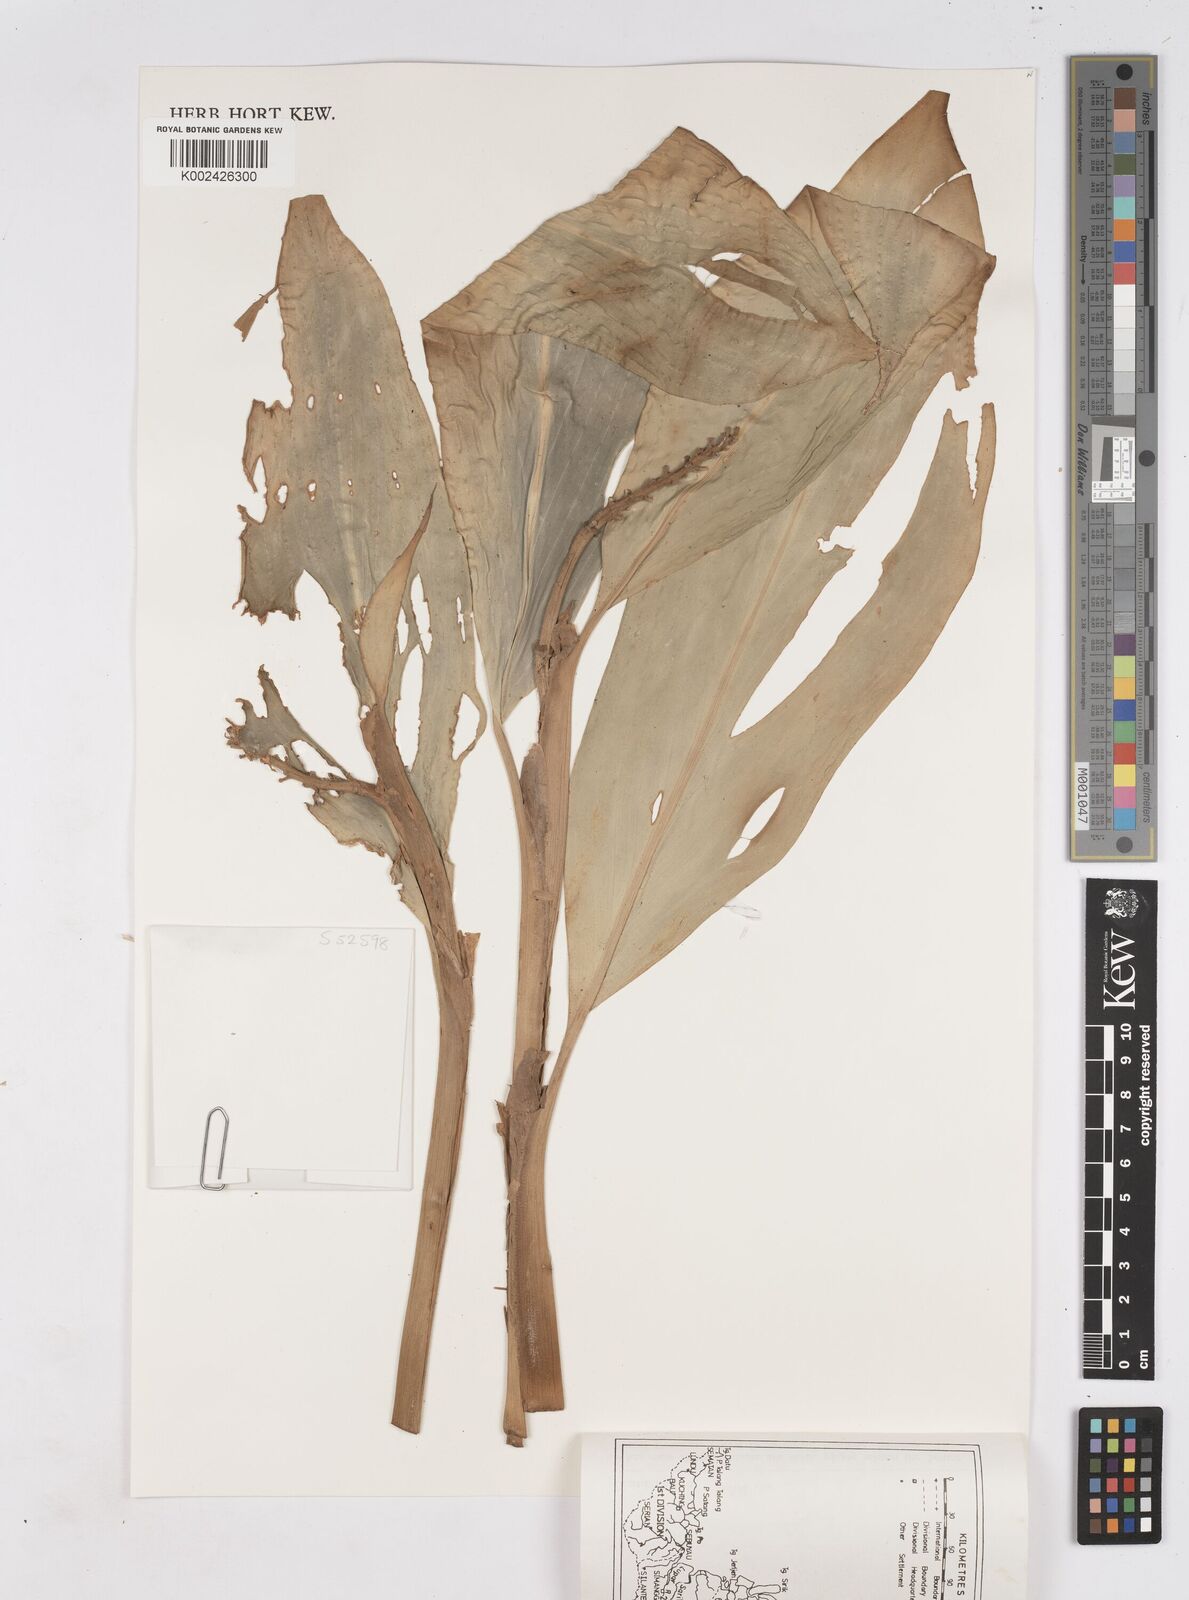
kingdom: Plantae
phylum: Tracheophyta
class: Liliopsida
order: Zingiberales
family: Zingiberaceae
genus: Burbidgea
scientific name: Burbidgea schizocheila
